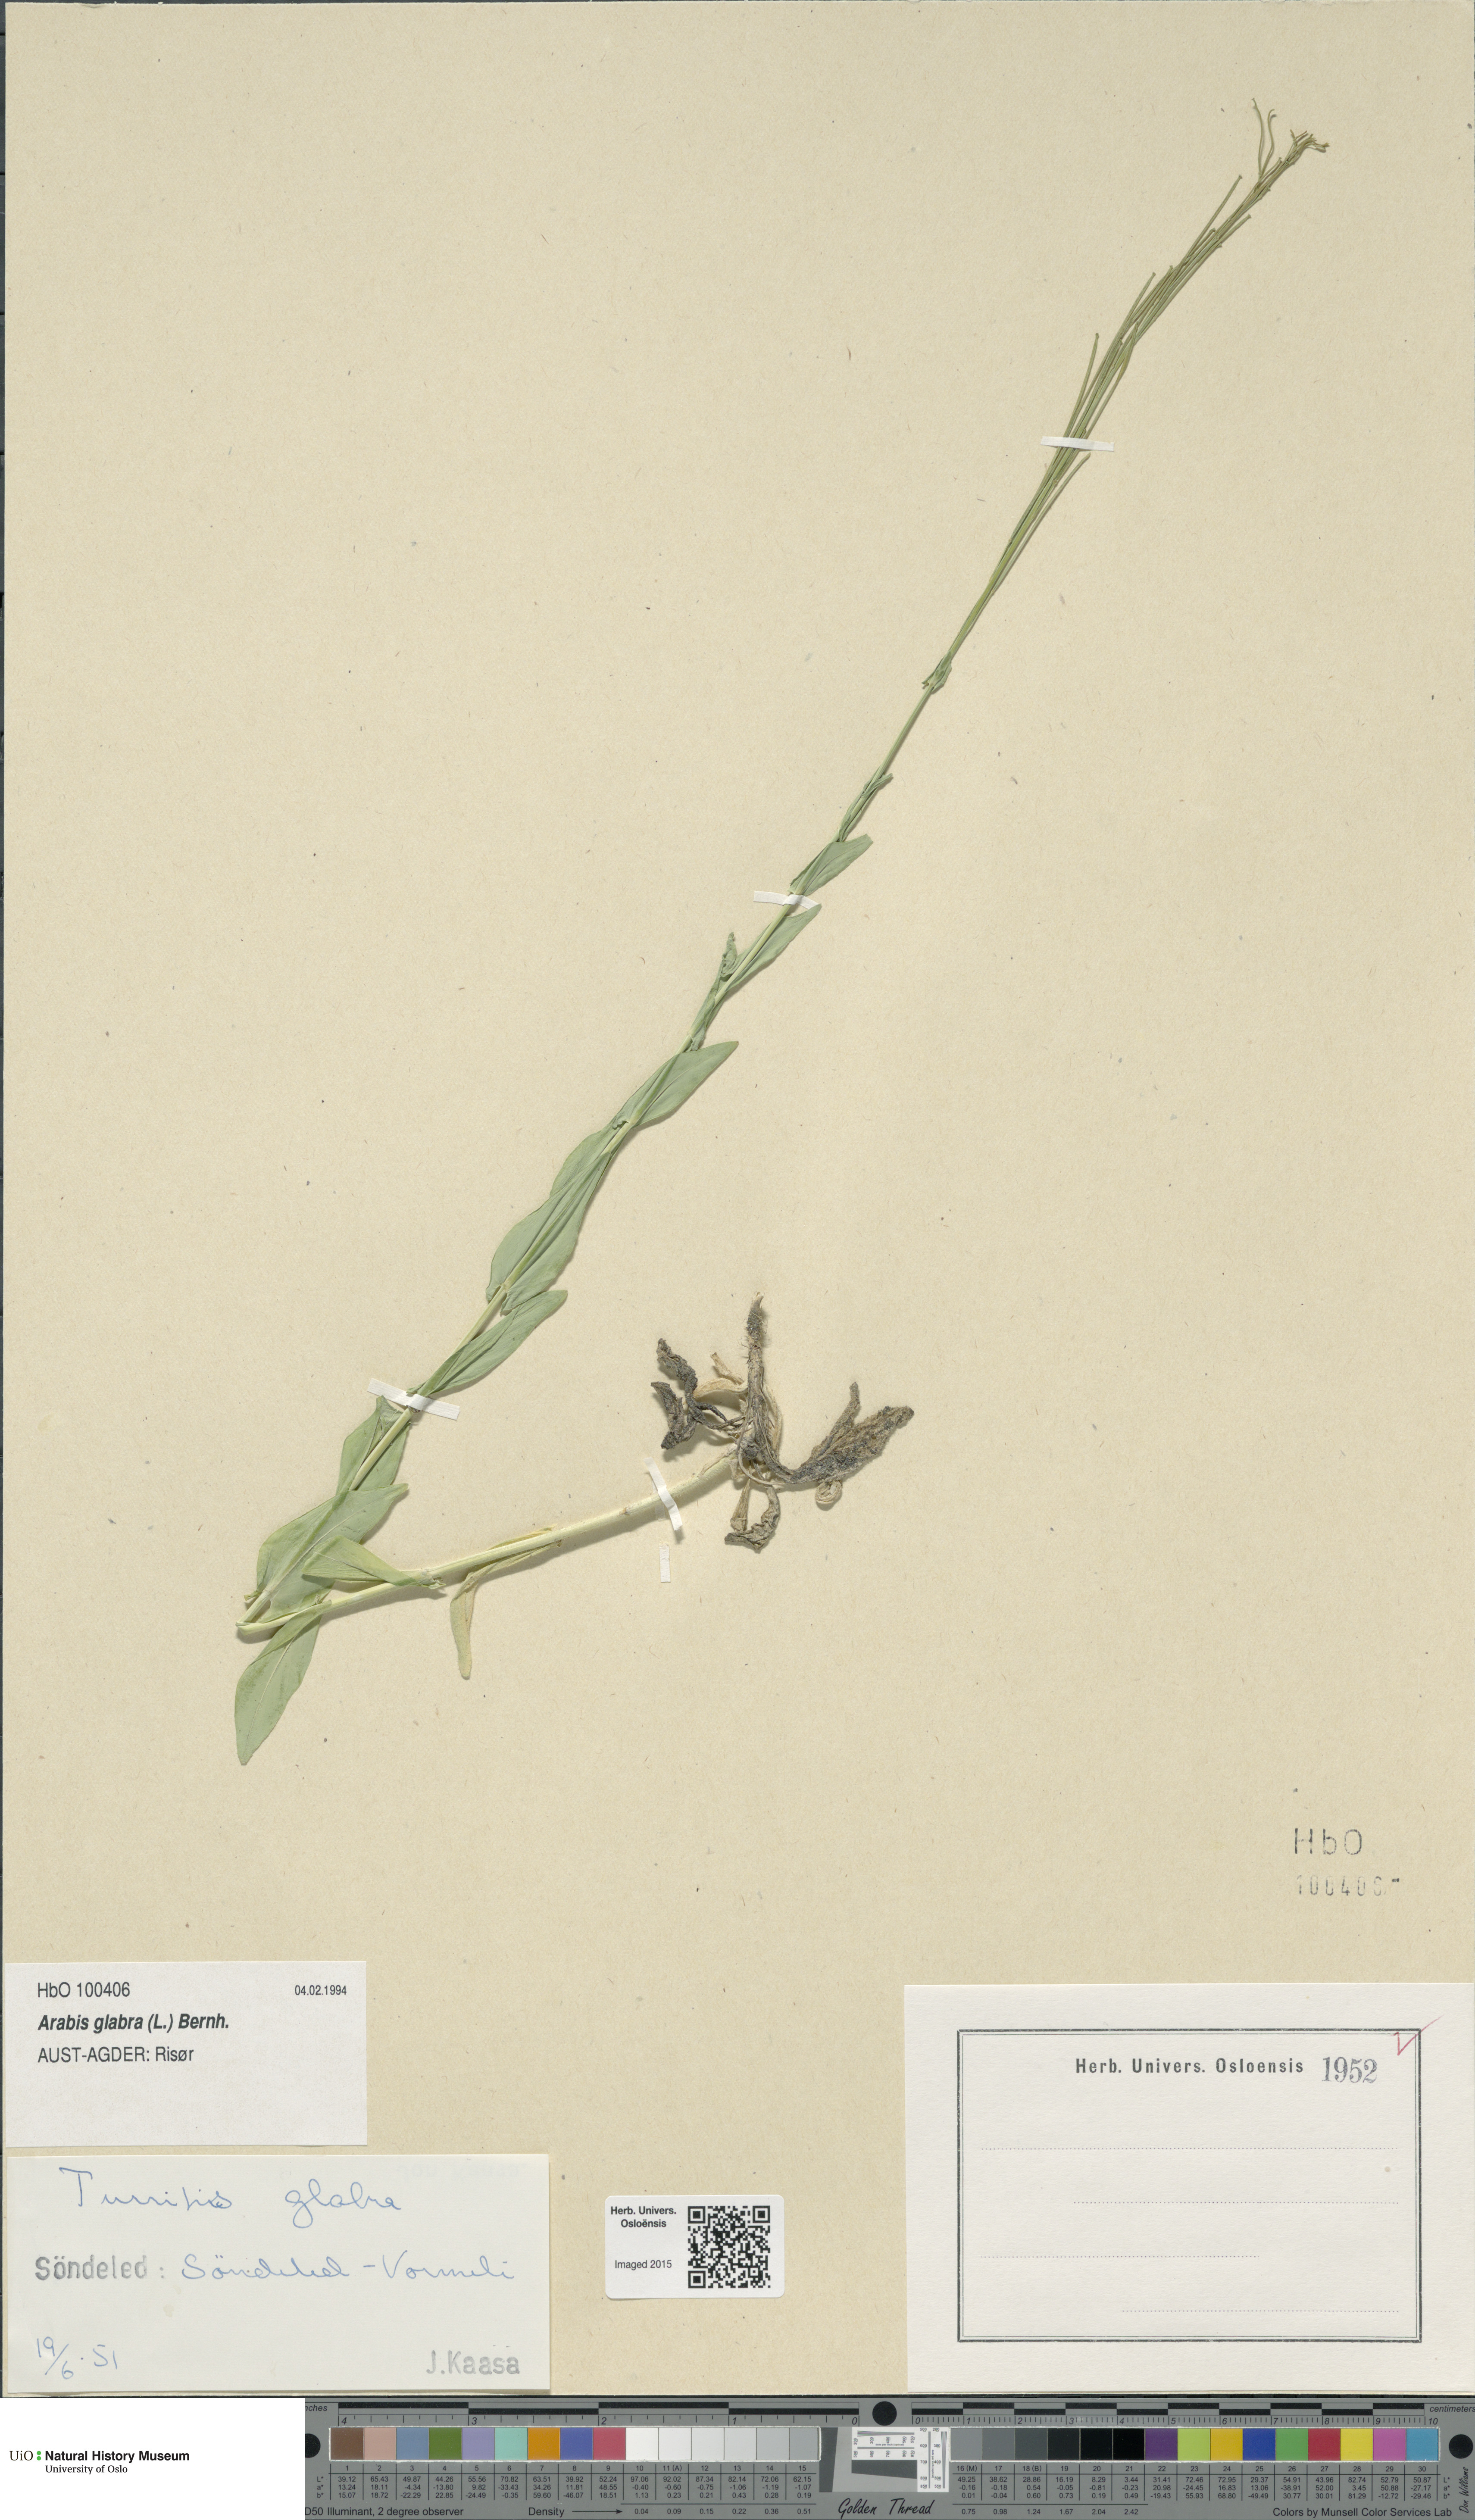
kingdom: Plantae
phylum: Tracheophyta
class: Magnoliopsida
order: Brassicales
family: Brassicaceae
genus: Turritis
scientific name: Turritis glabra
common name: Tower rockcress
